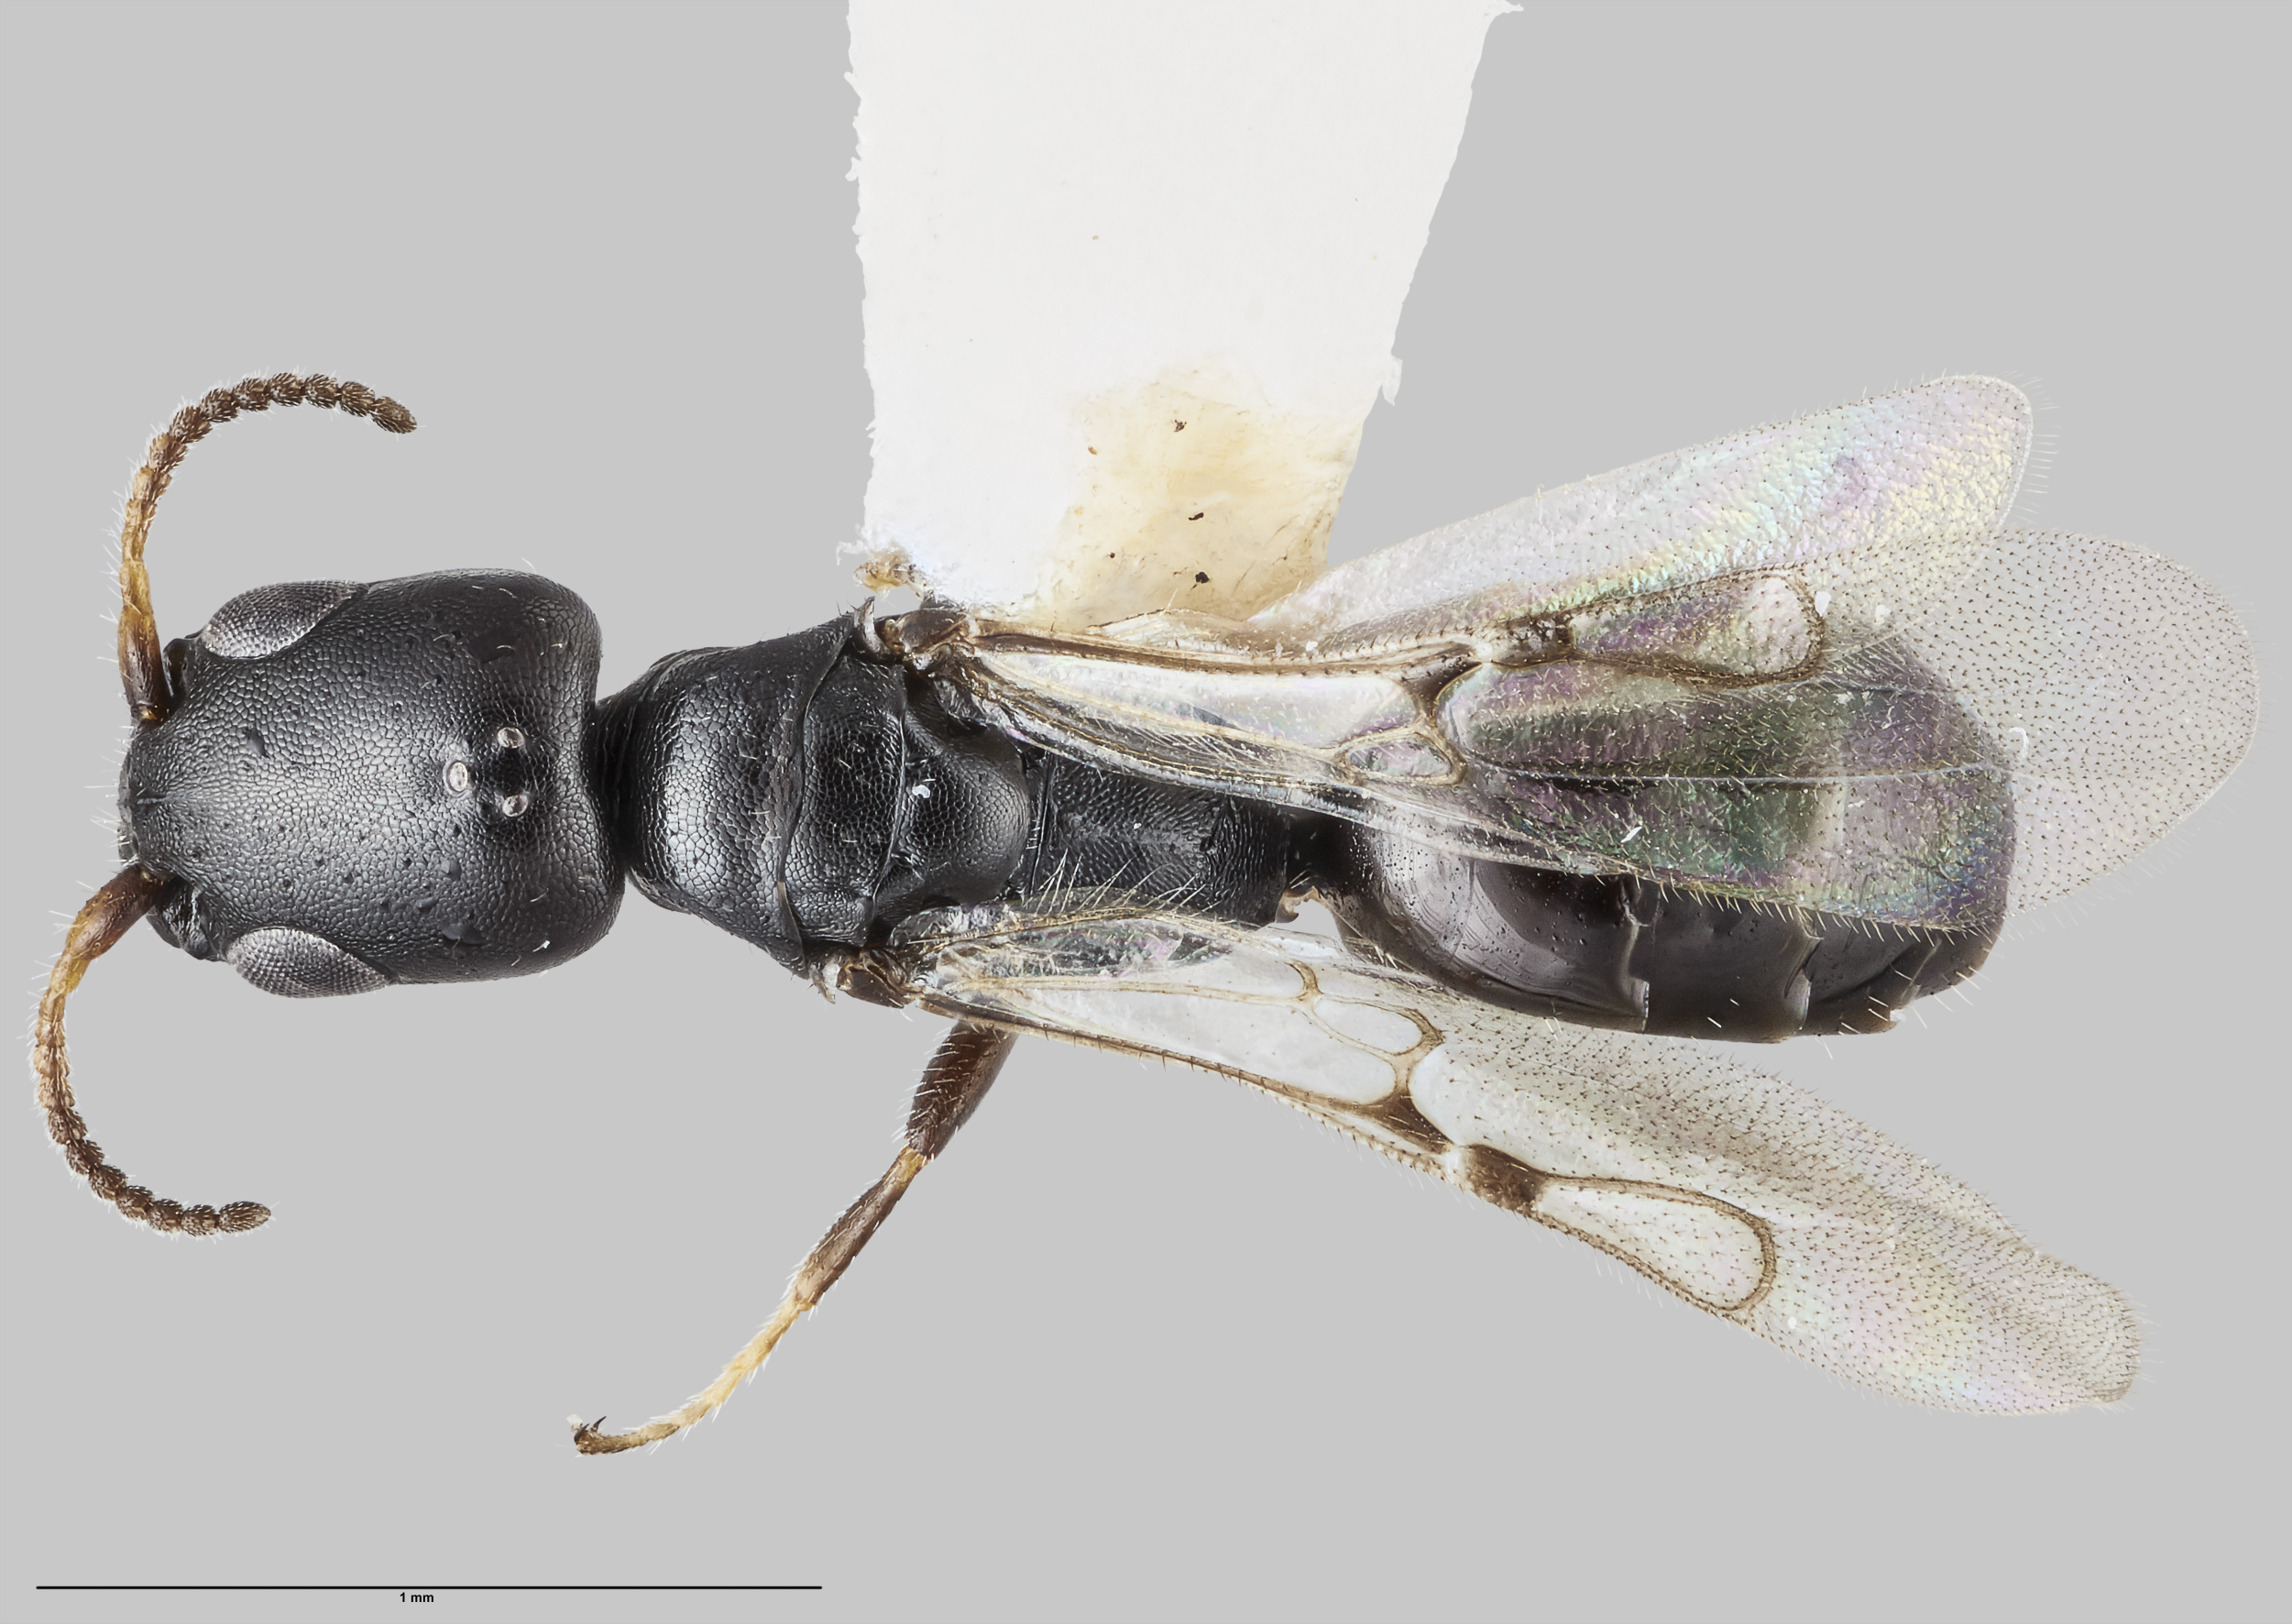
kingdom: Animalia
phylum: Arthropoda
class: Insecta
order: Hymenoptera
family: Bethylidae
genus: Sierola
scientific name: Sierola gilbertae
